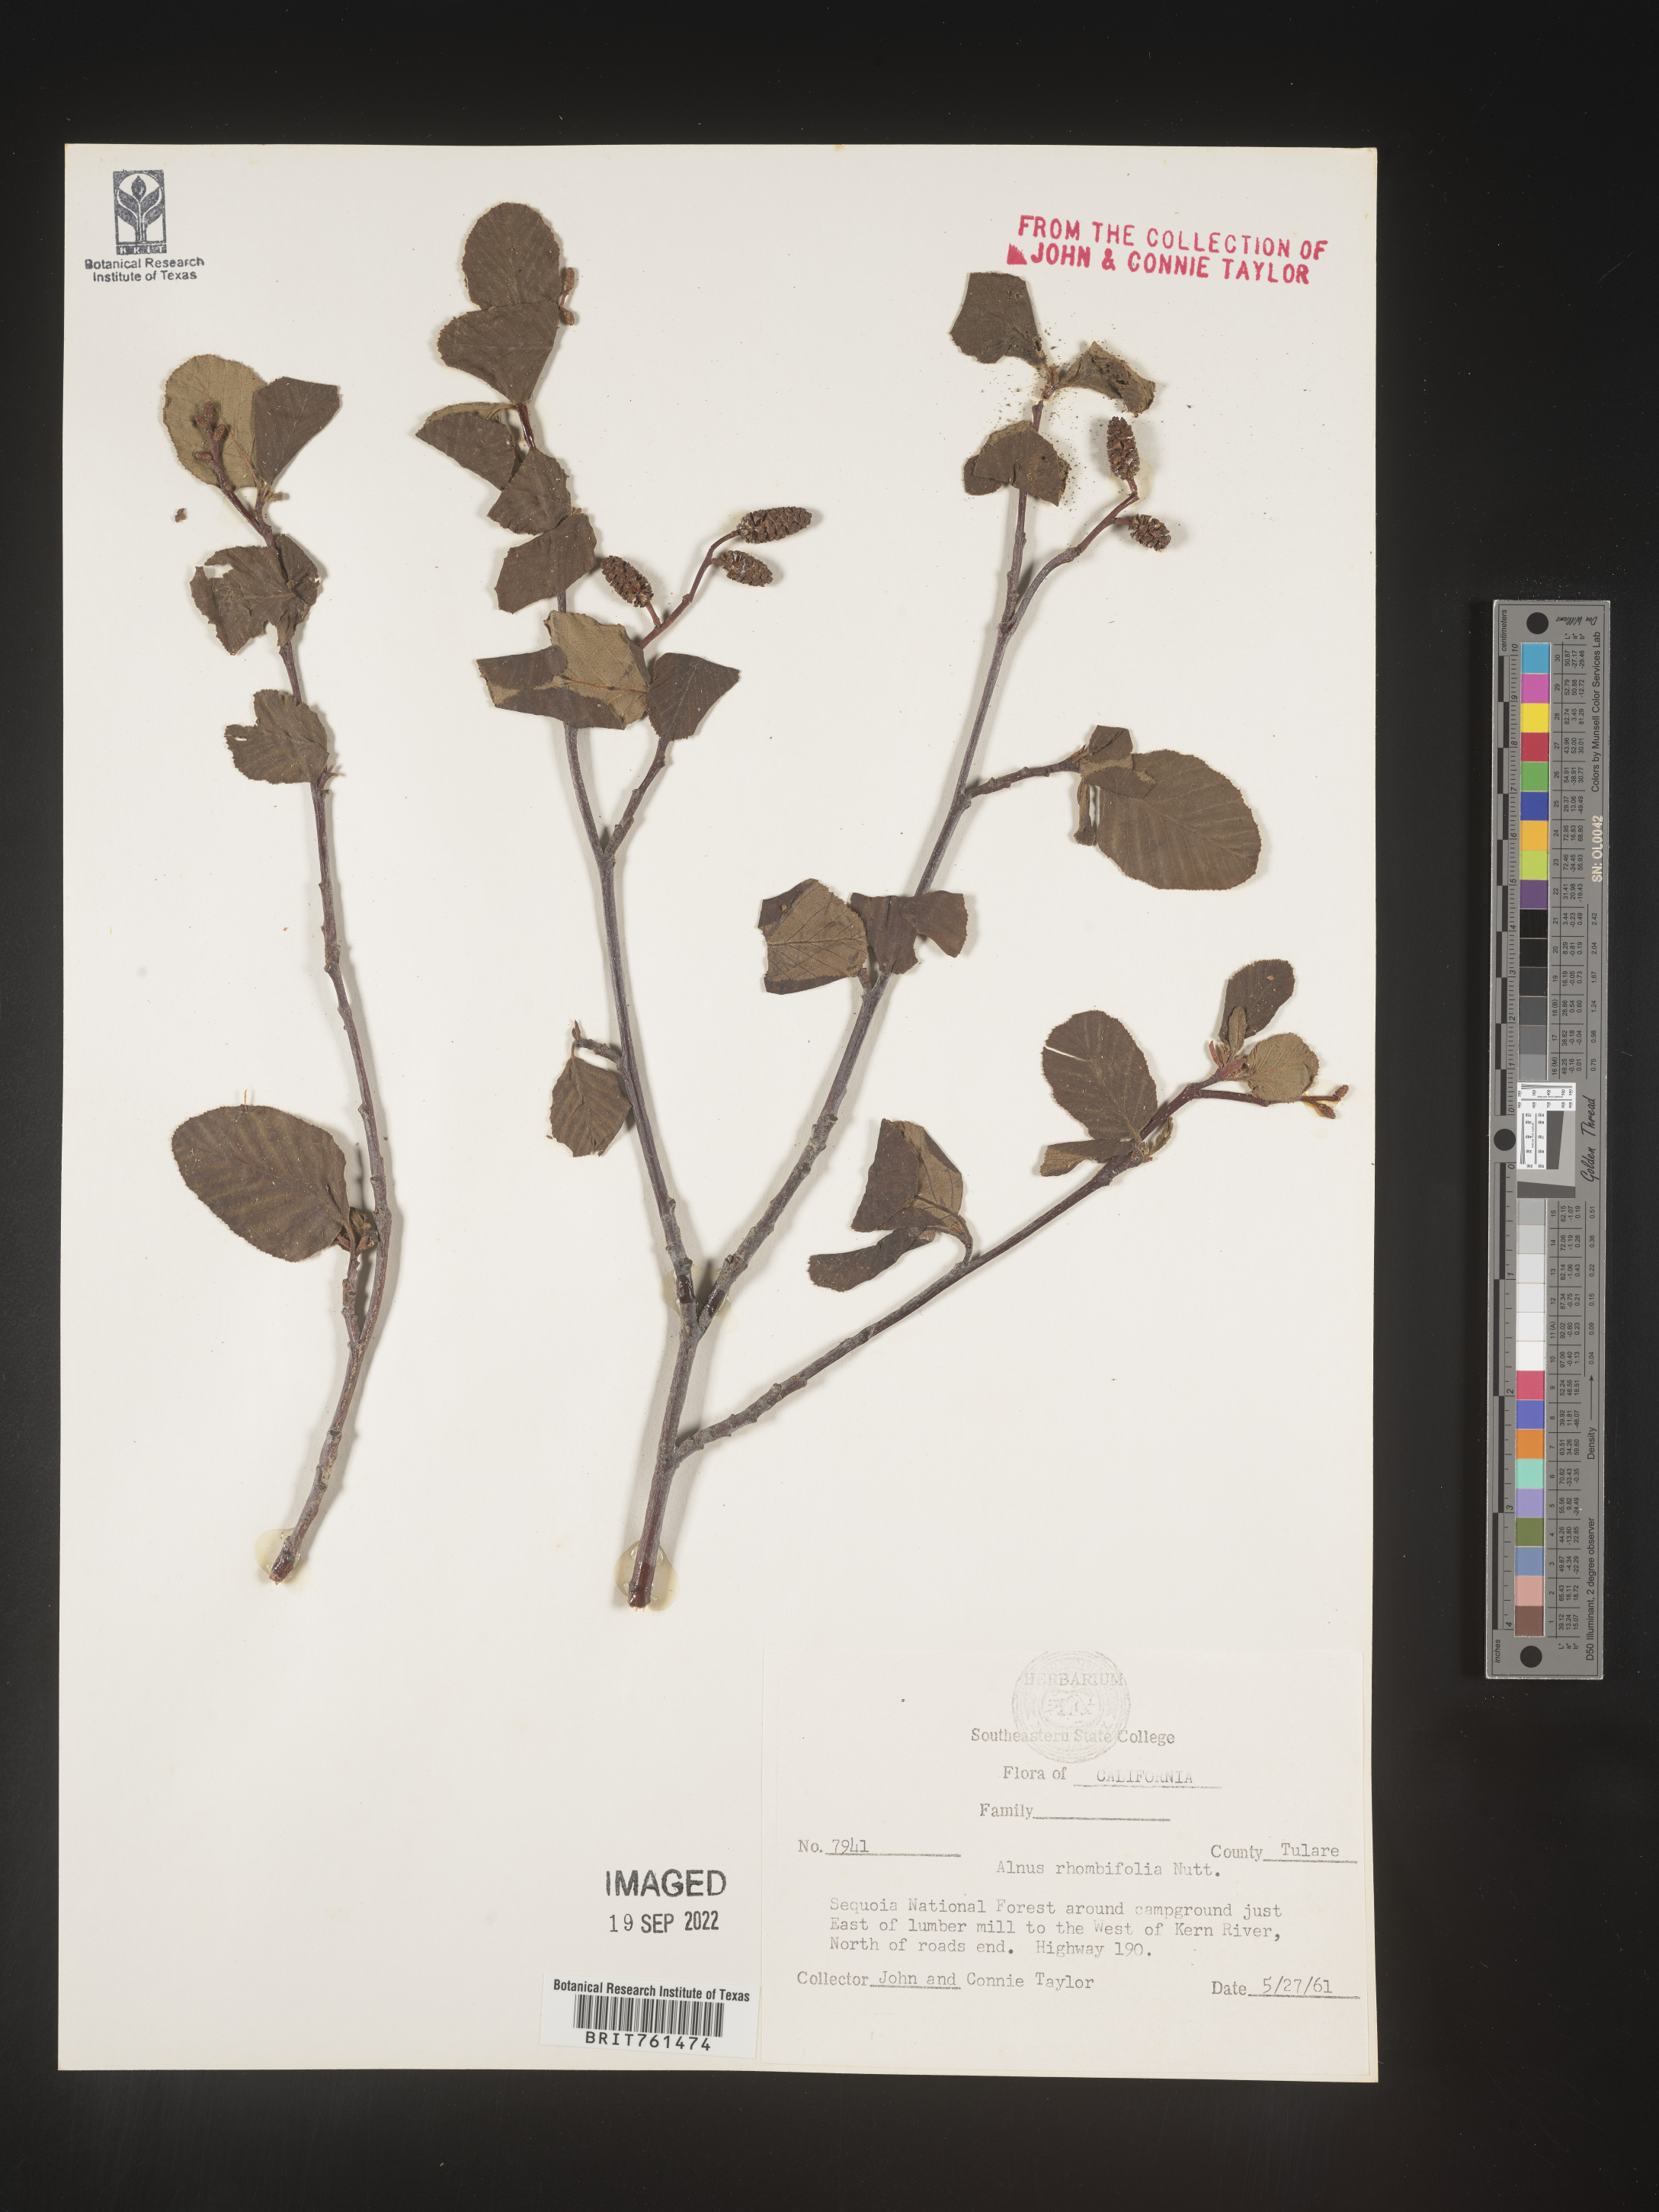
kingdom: Plantae
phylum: Tracheophyta
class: Magnoliopsida
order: Fagales
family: Betulaceae
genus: Alnus
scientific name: Alnus rhombifolia
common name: California alder
